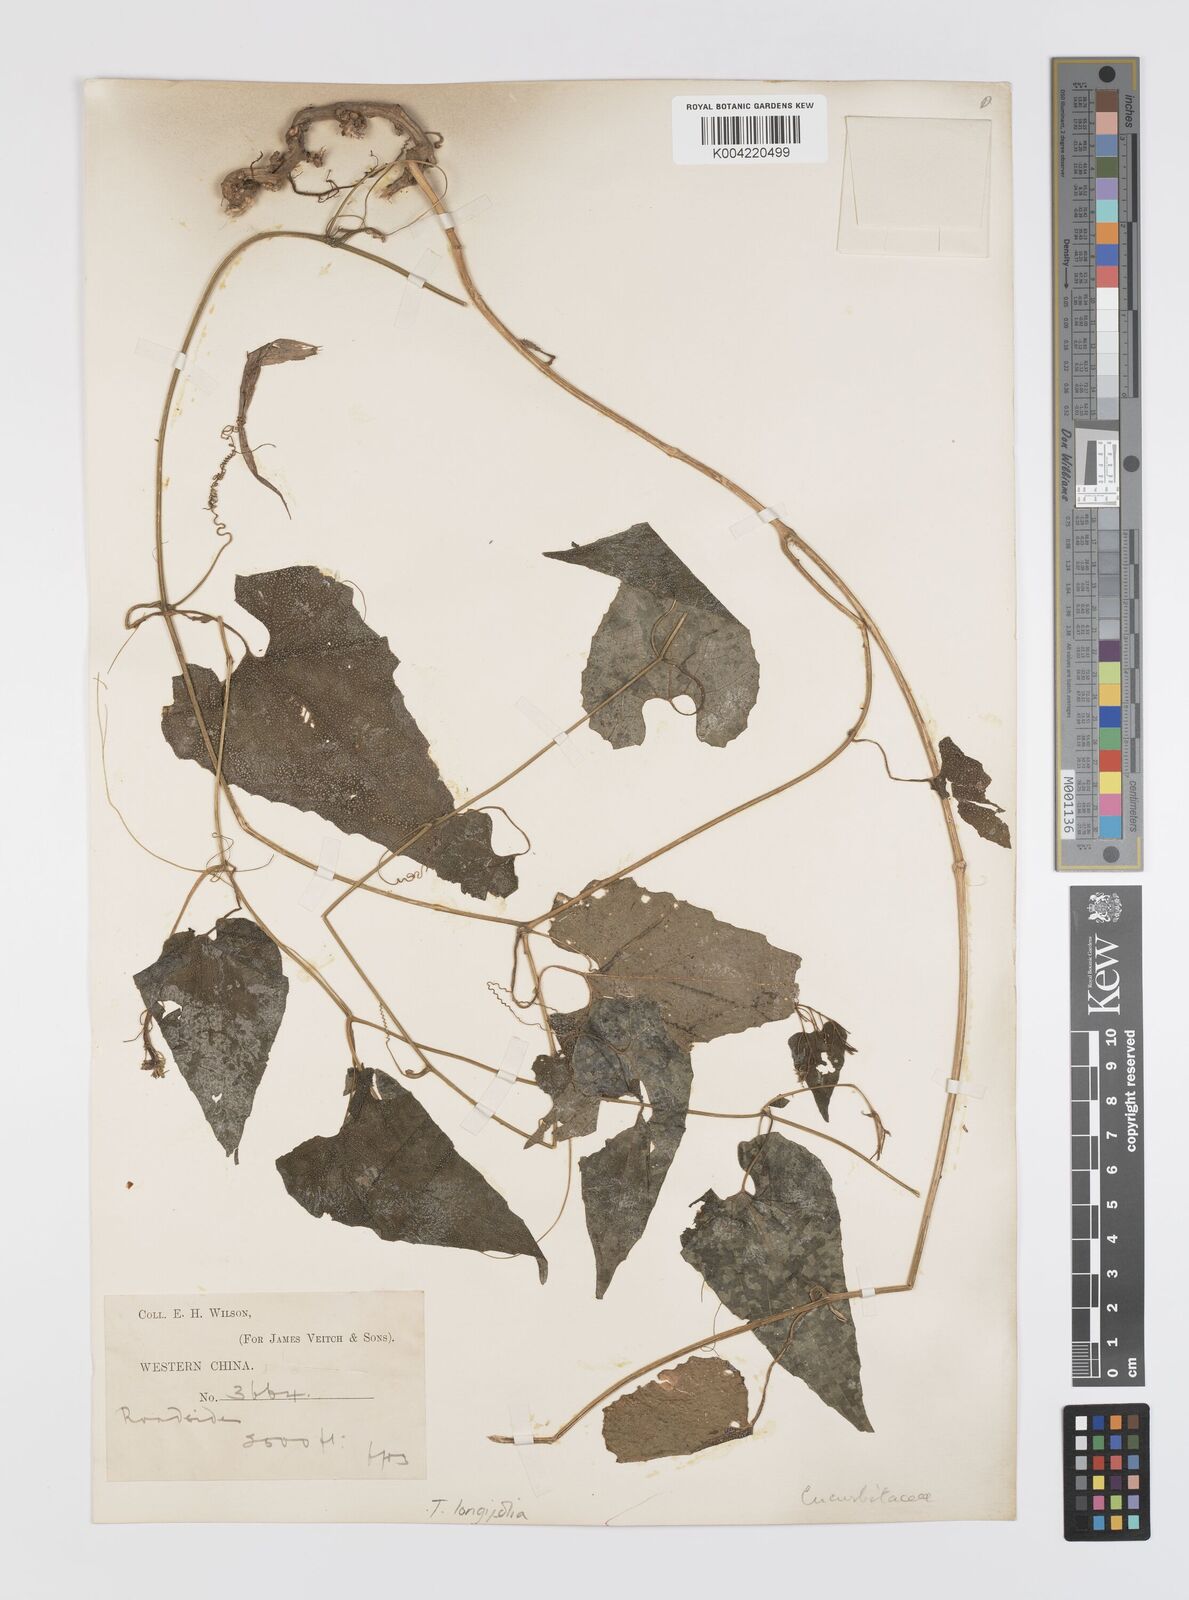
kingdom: Plantae
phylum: Tracheophyta
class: Magnoliopsida
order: Cucurbitales
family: Cucurbitaceae
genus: Thladiantha
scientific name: Thladiantha longifolia
